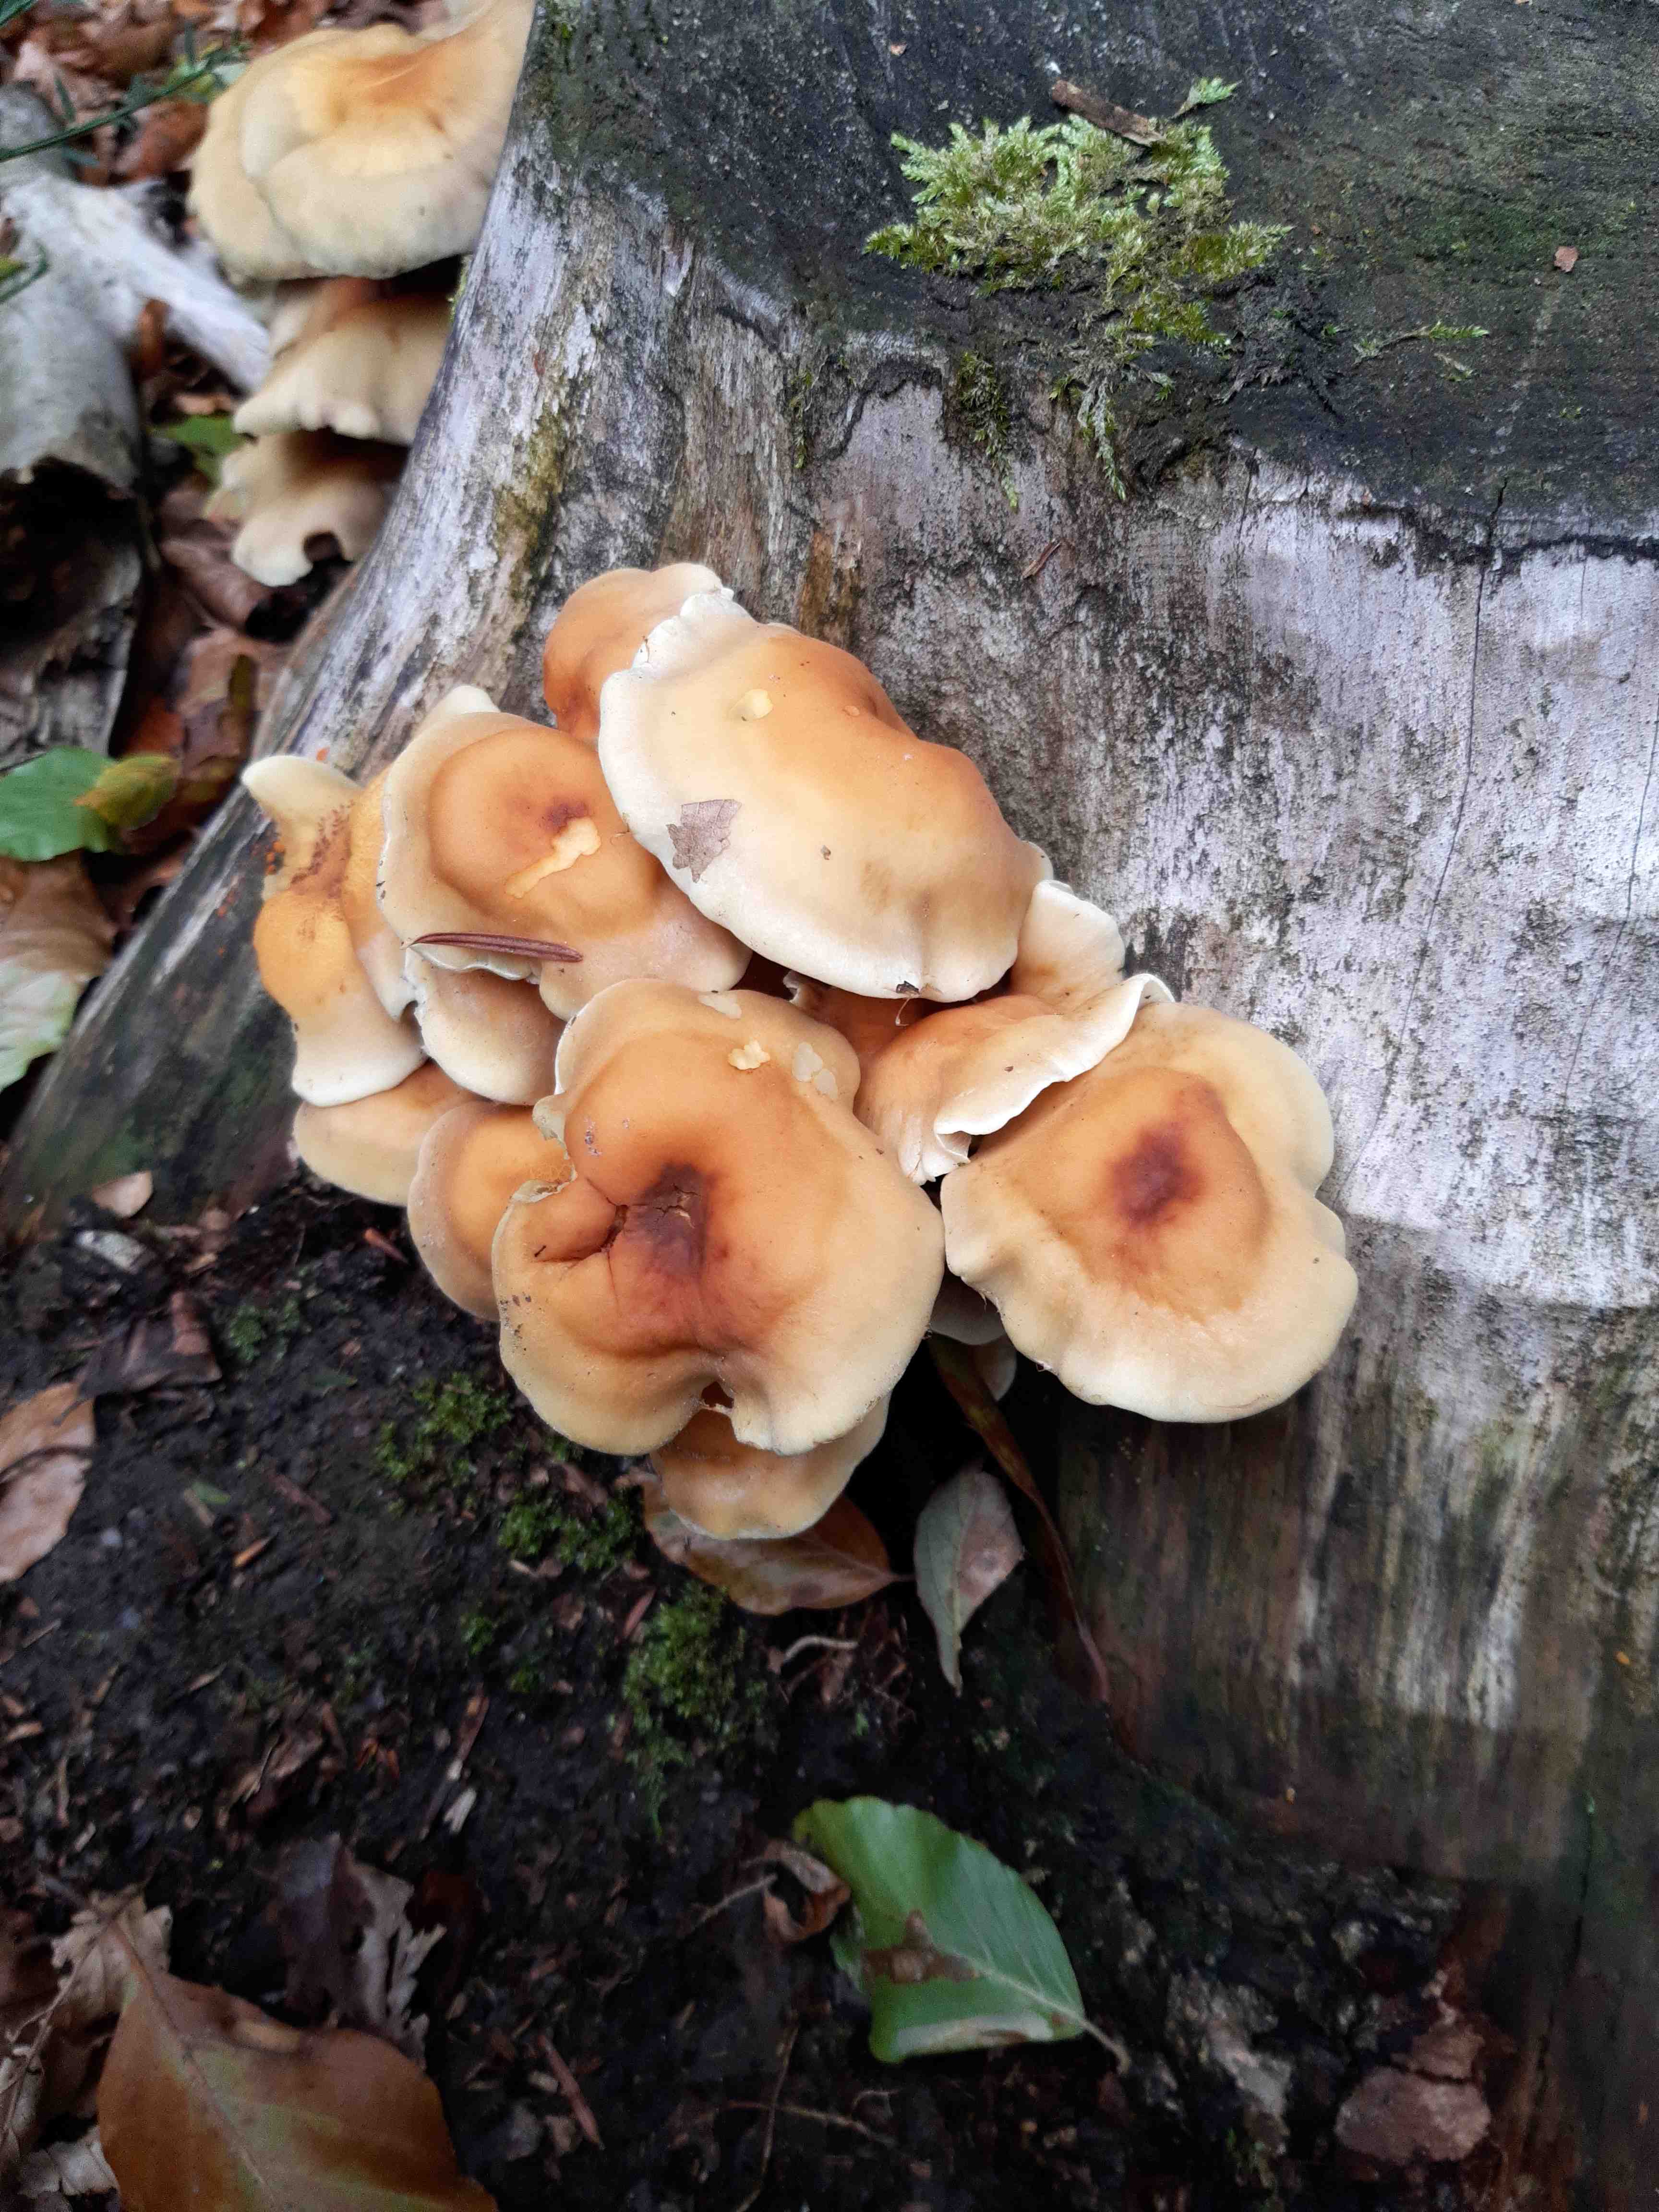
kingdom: Fungi
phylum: Basidiomycota
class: Agaricomycetes
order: Agaricales
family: Strophariaceae
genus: Hypholoma
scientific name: Hypholoma fasciculare
